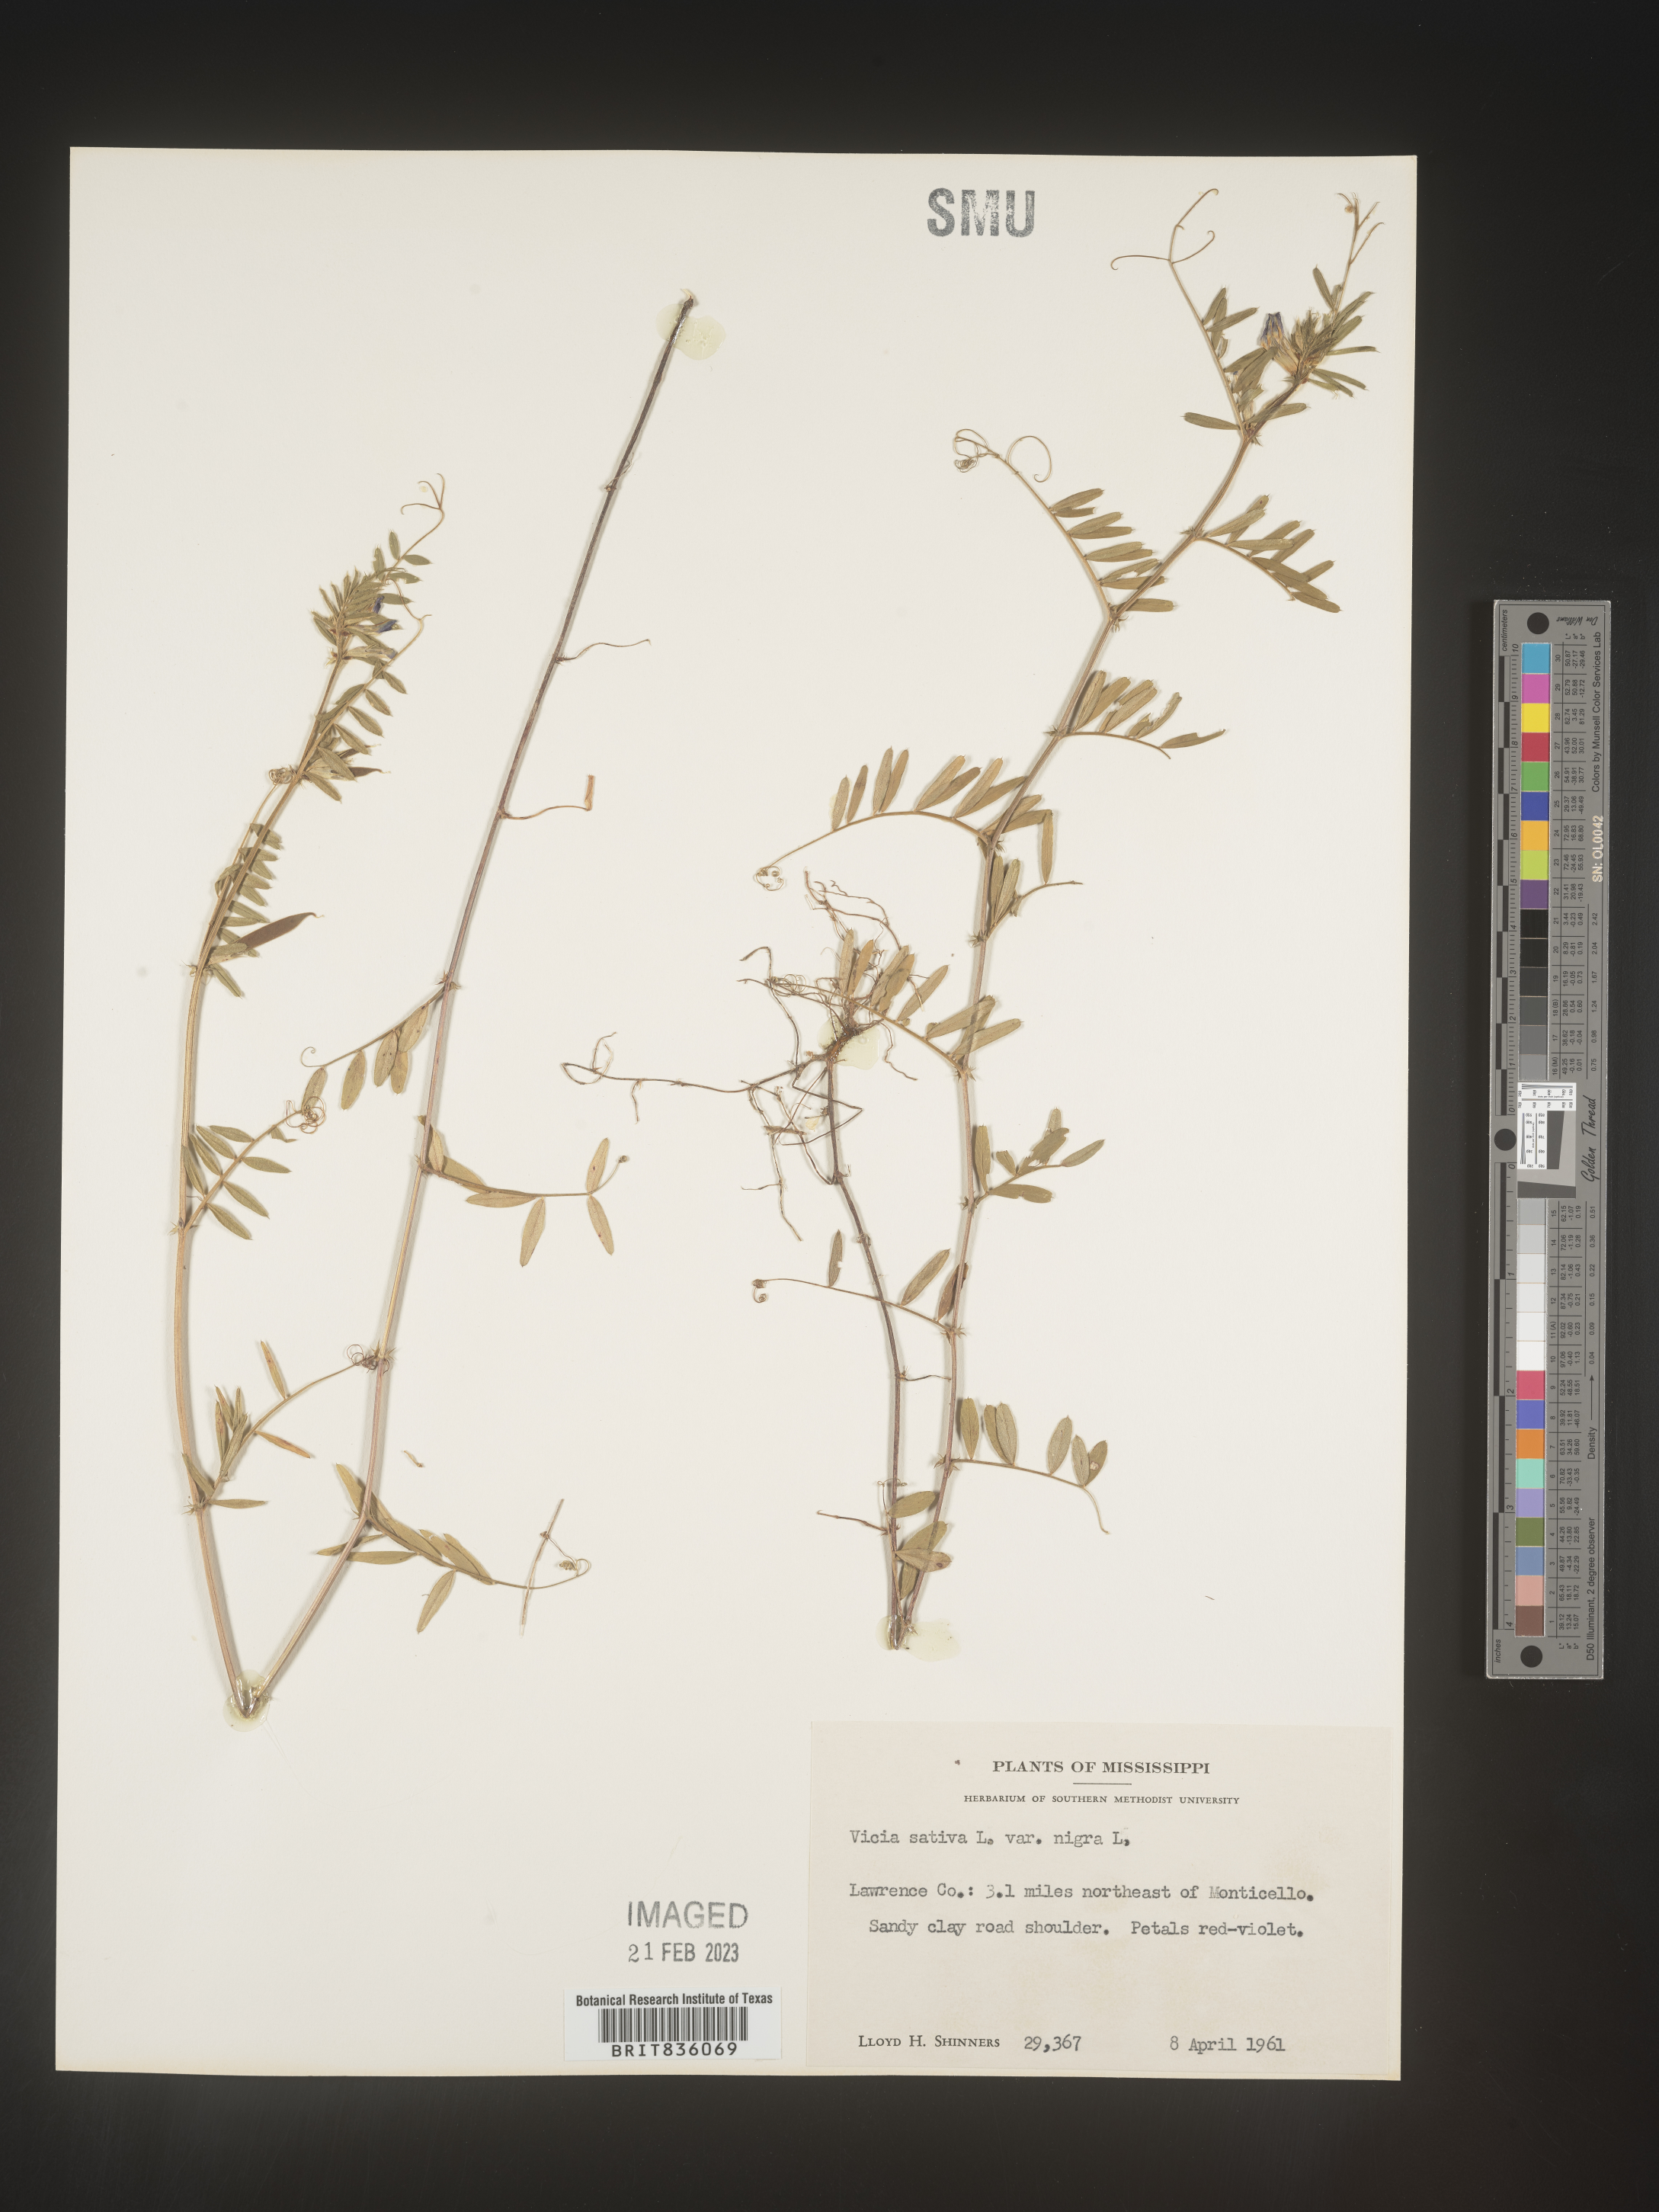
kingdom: Plantae
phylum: Tracheophyta
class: Magnoliopsida
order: Fabales
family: Fabaceae
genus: Vicia
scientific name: Vicia sativa
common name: Garden vetch
